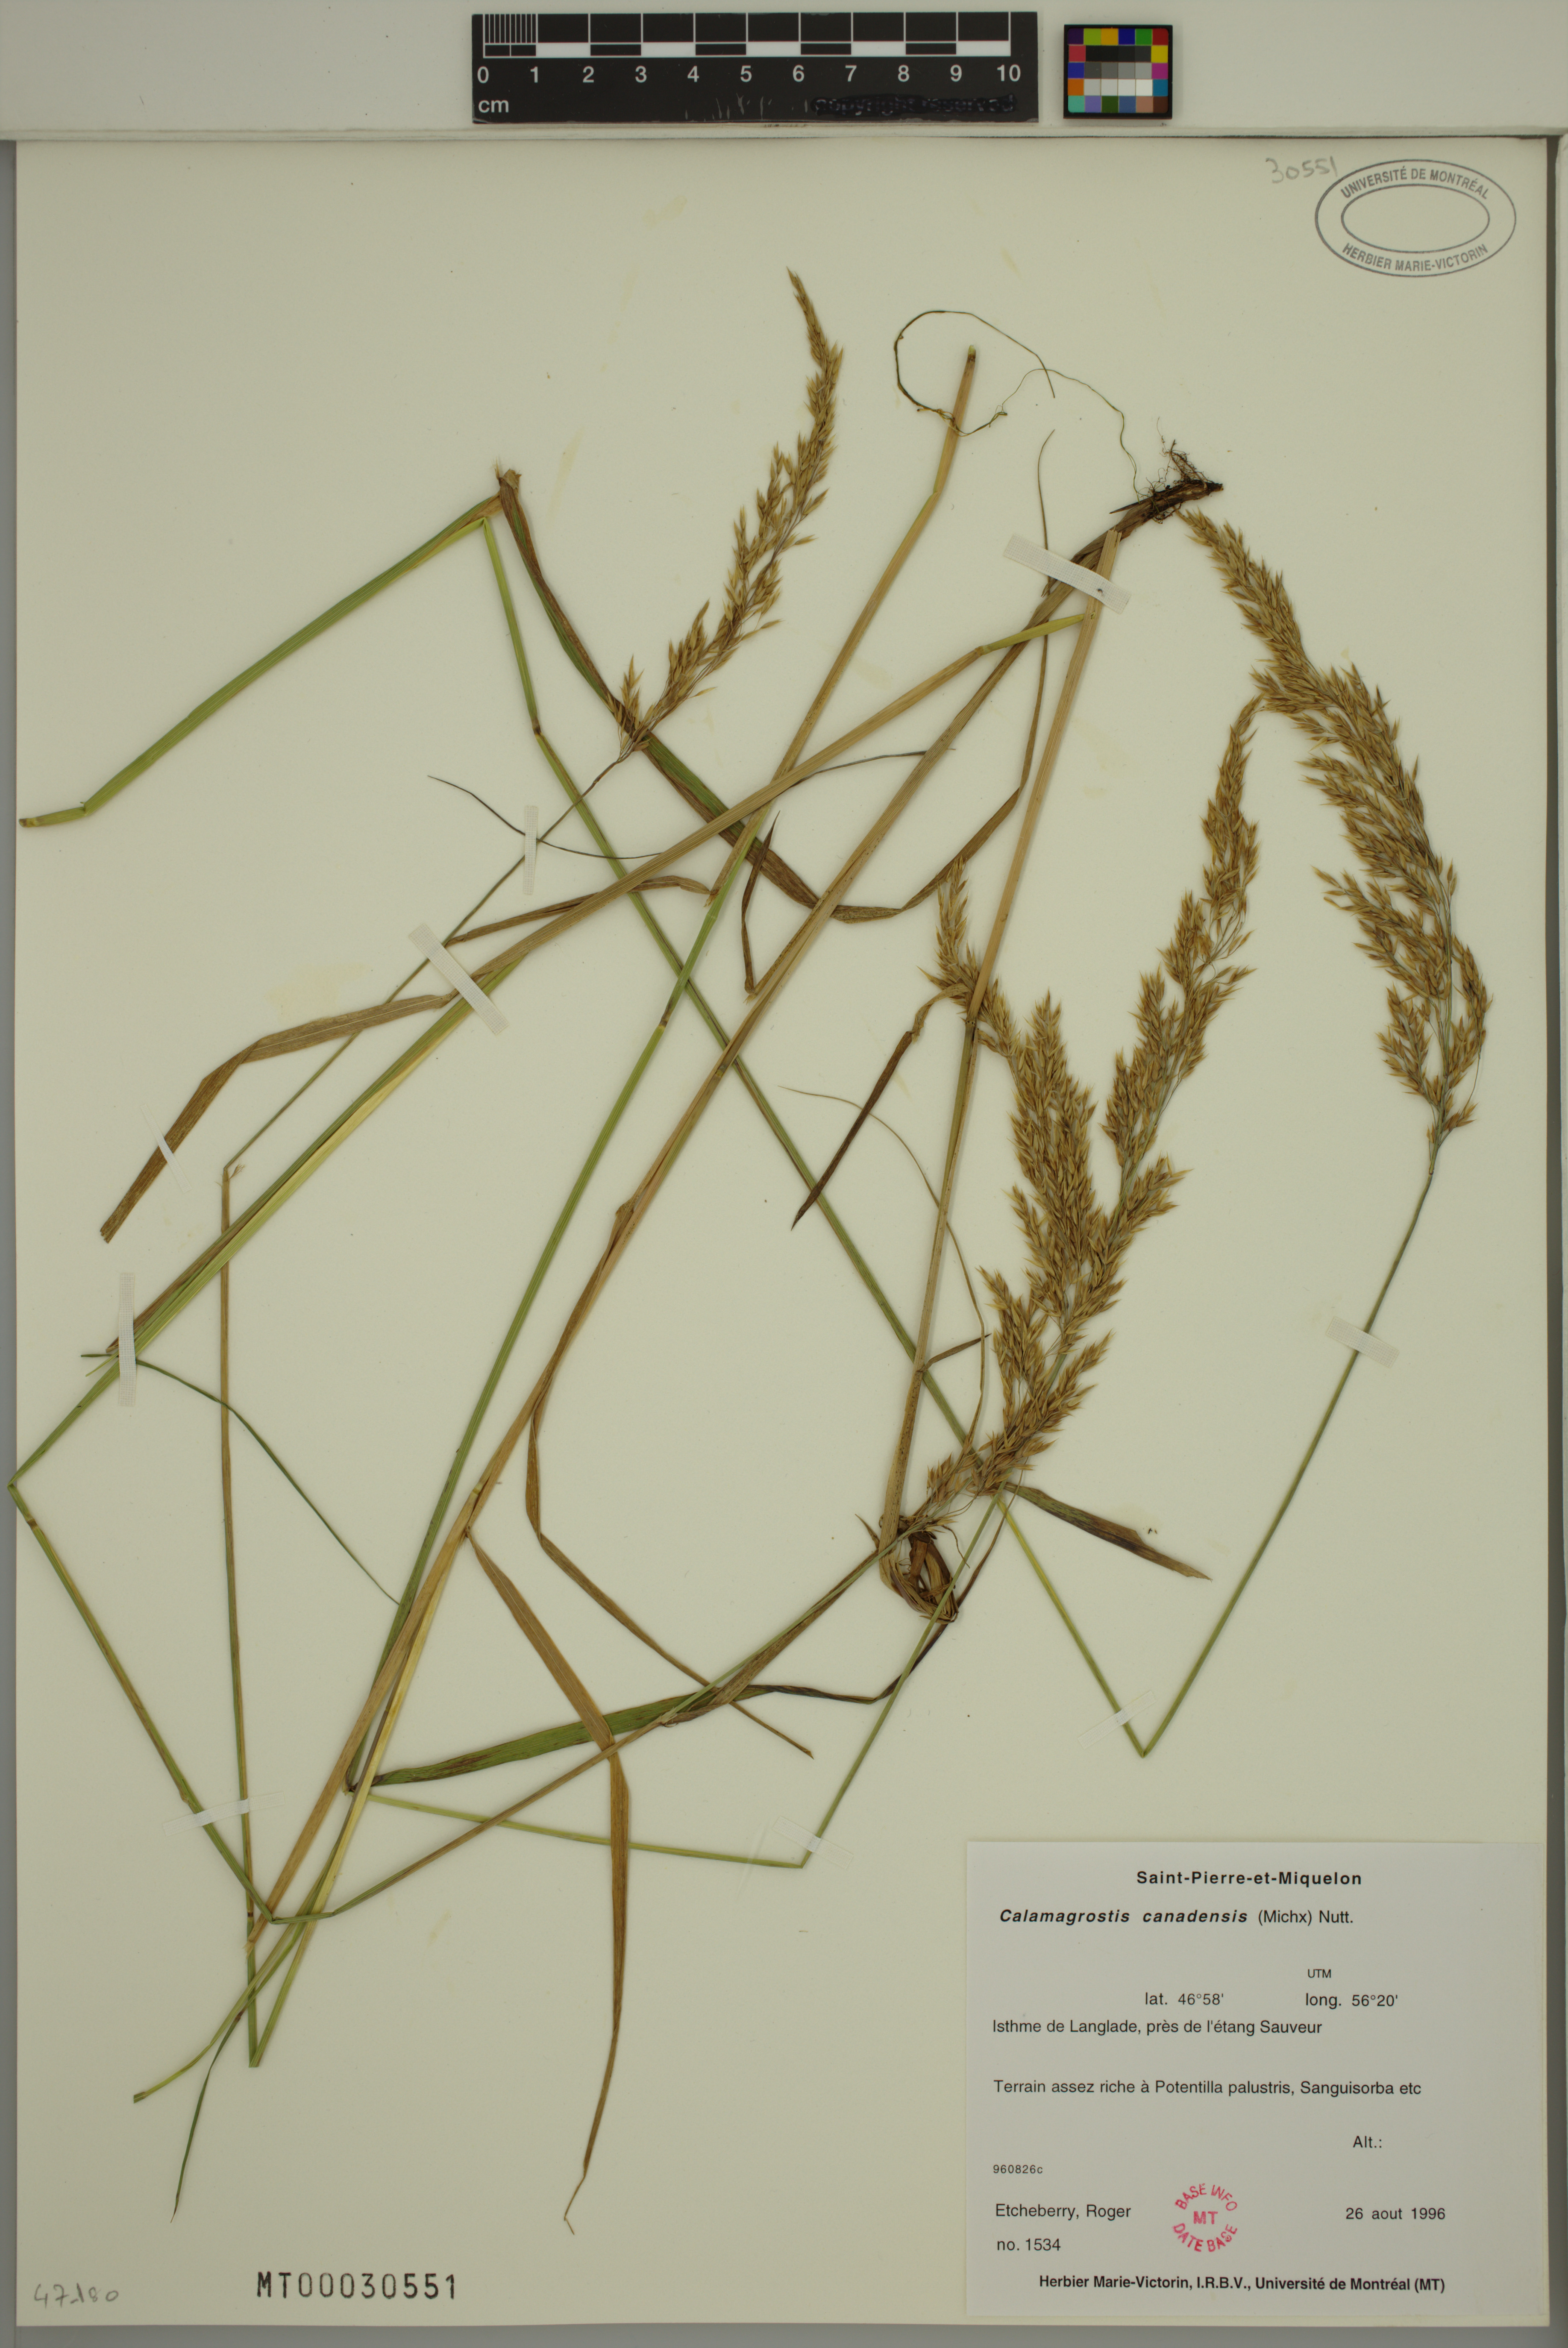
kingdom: Plantae
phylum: Tracheophyta
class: Liliopsida
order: Poales
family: Poaceae
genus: Calamagrostis
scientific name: Calamagrostis canadensis
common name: Canada bluejoint
